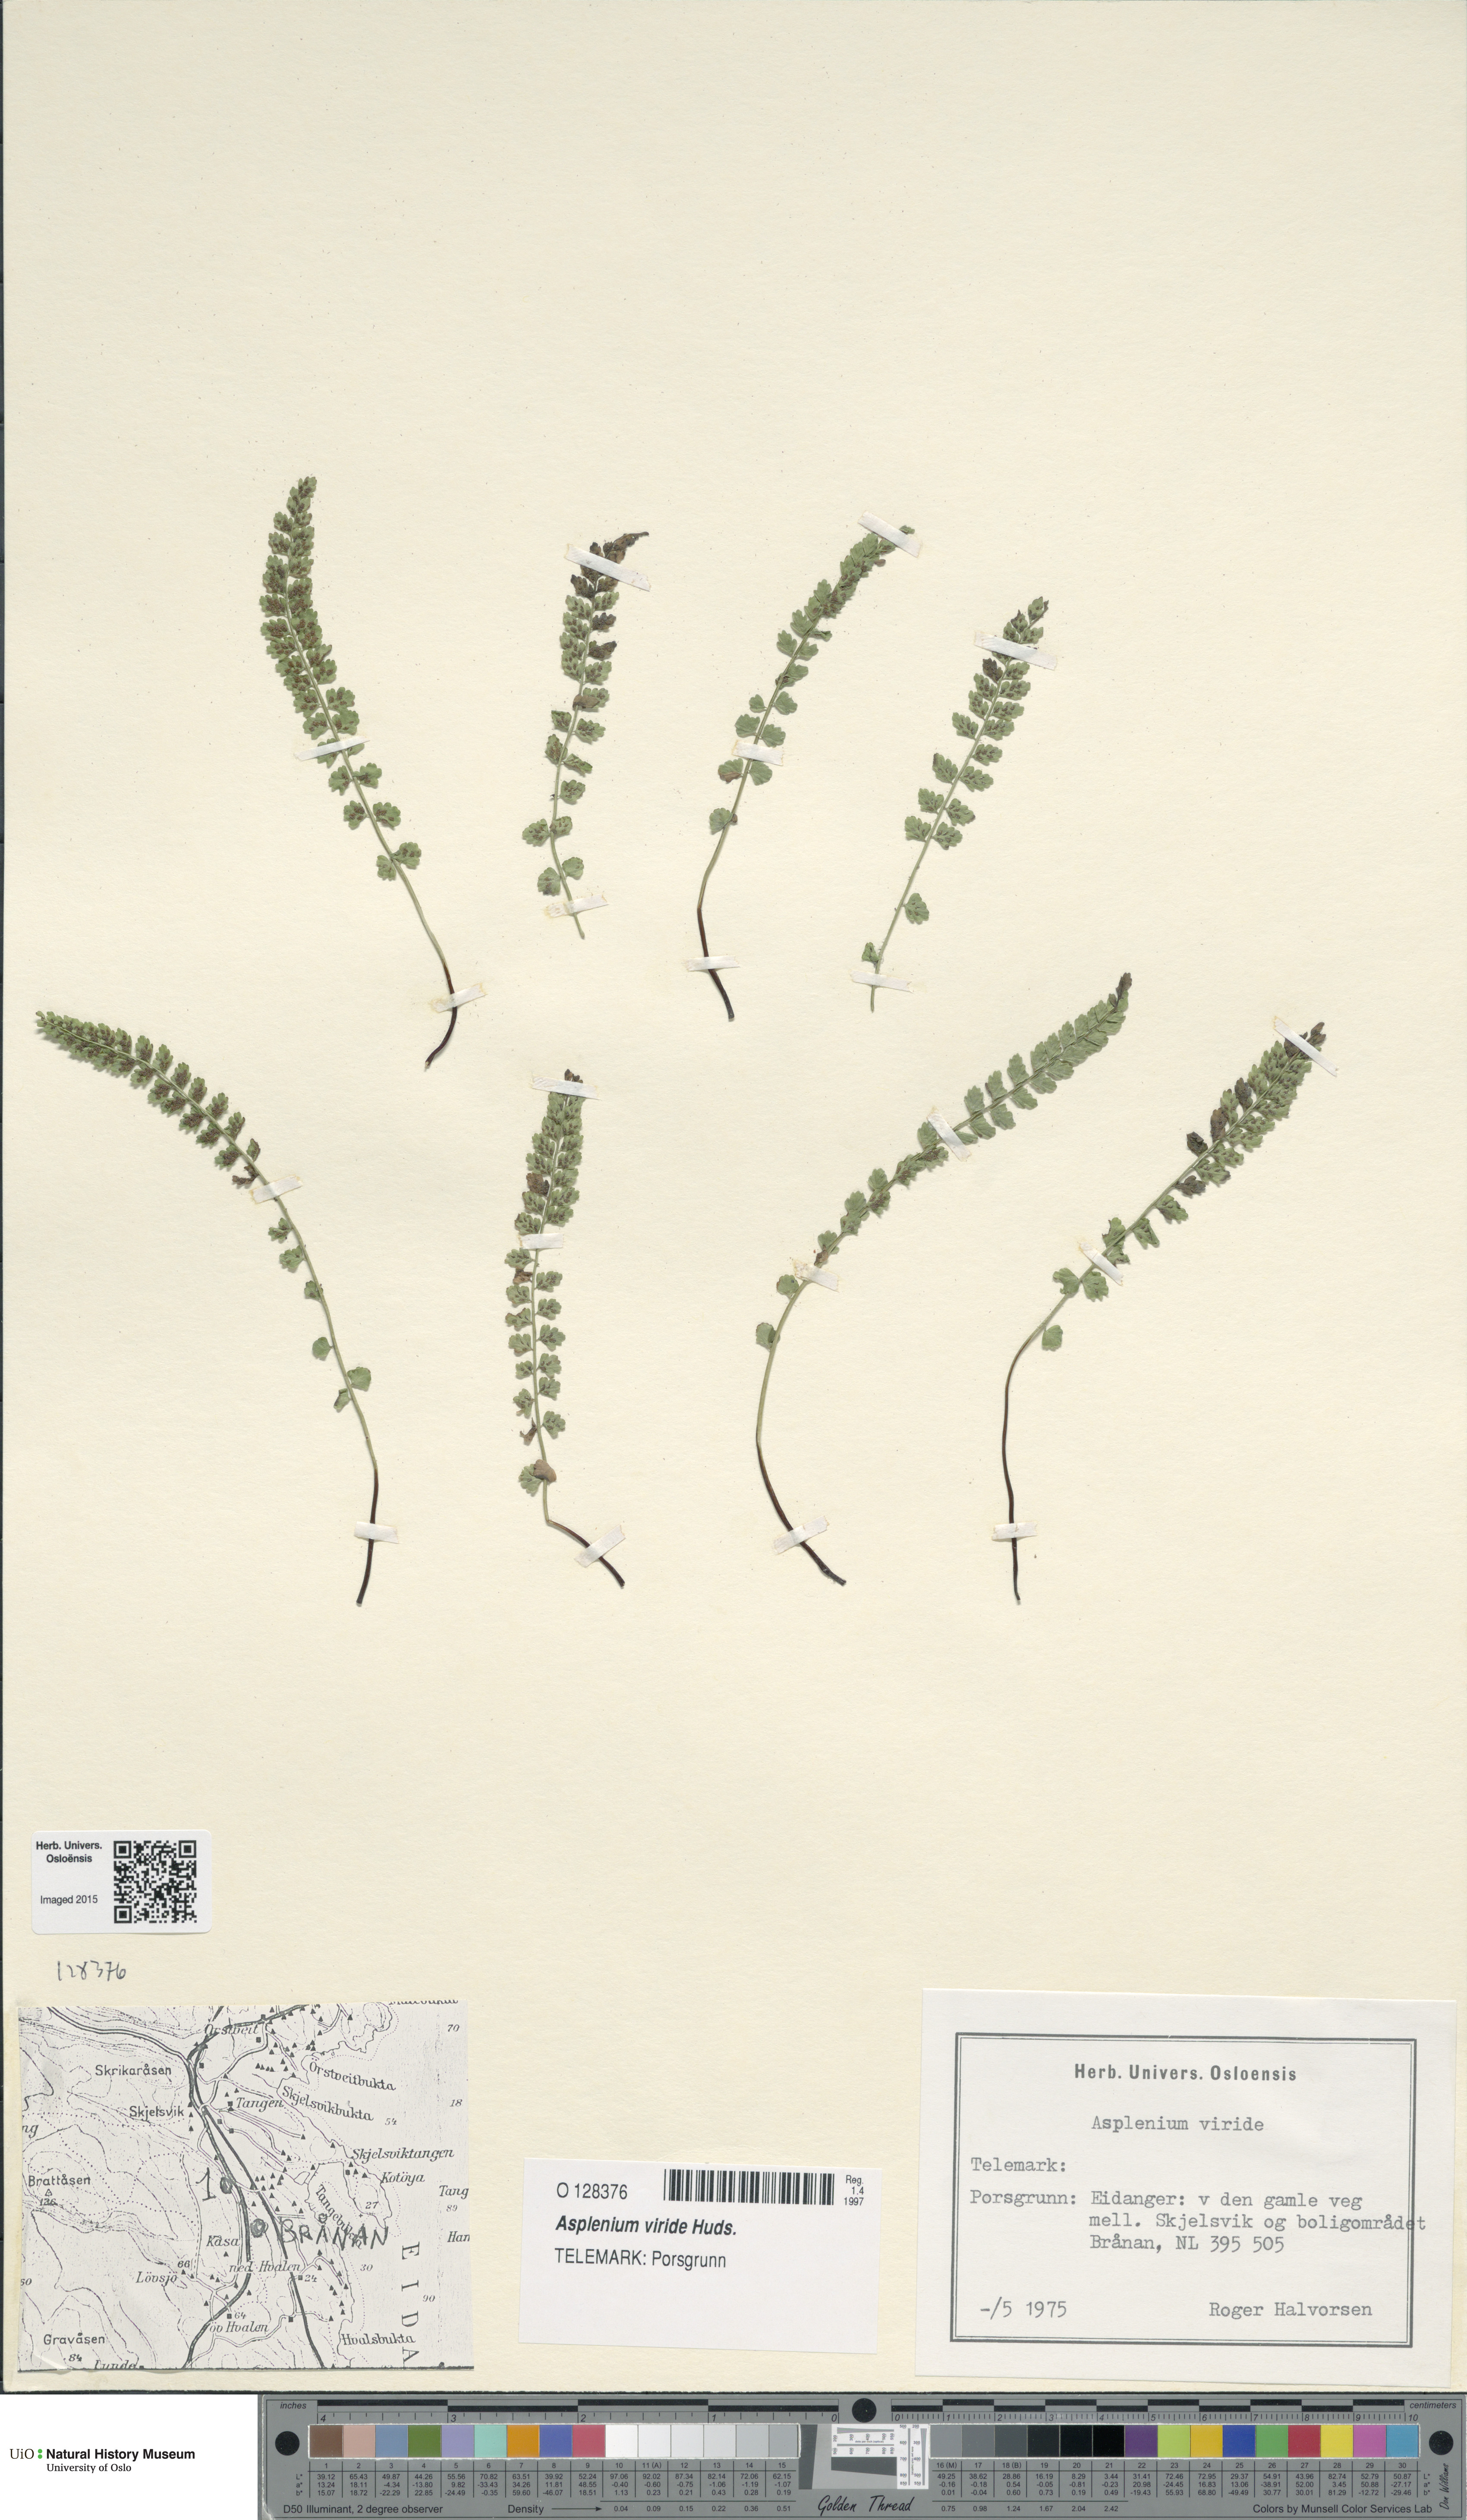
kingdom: Plantae
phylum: Tracheophyta
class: Polypodiopsida
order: Polypodiales
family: Aspleniaceae
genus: Asplenium
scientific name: Asplenium viride
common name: Green spleenwort
